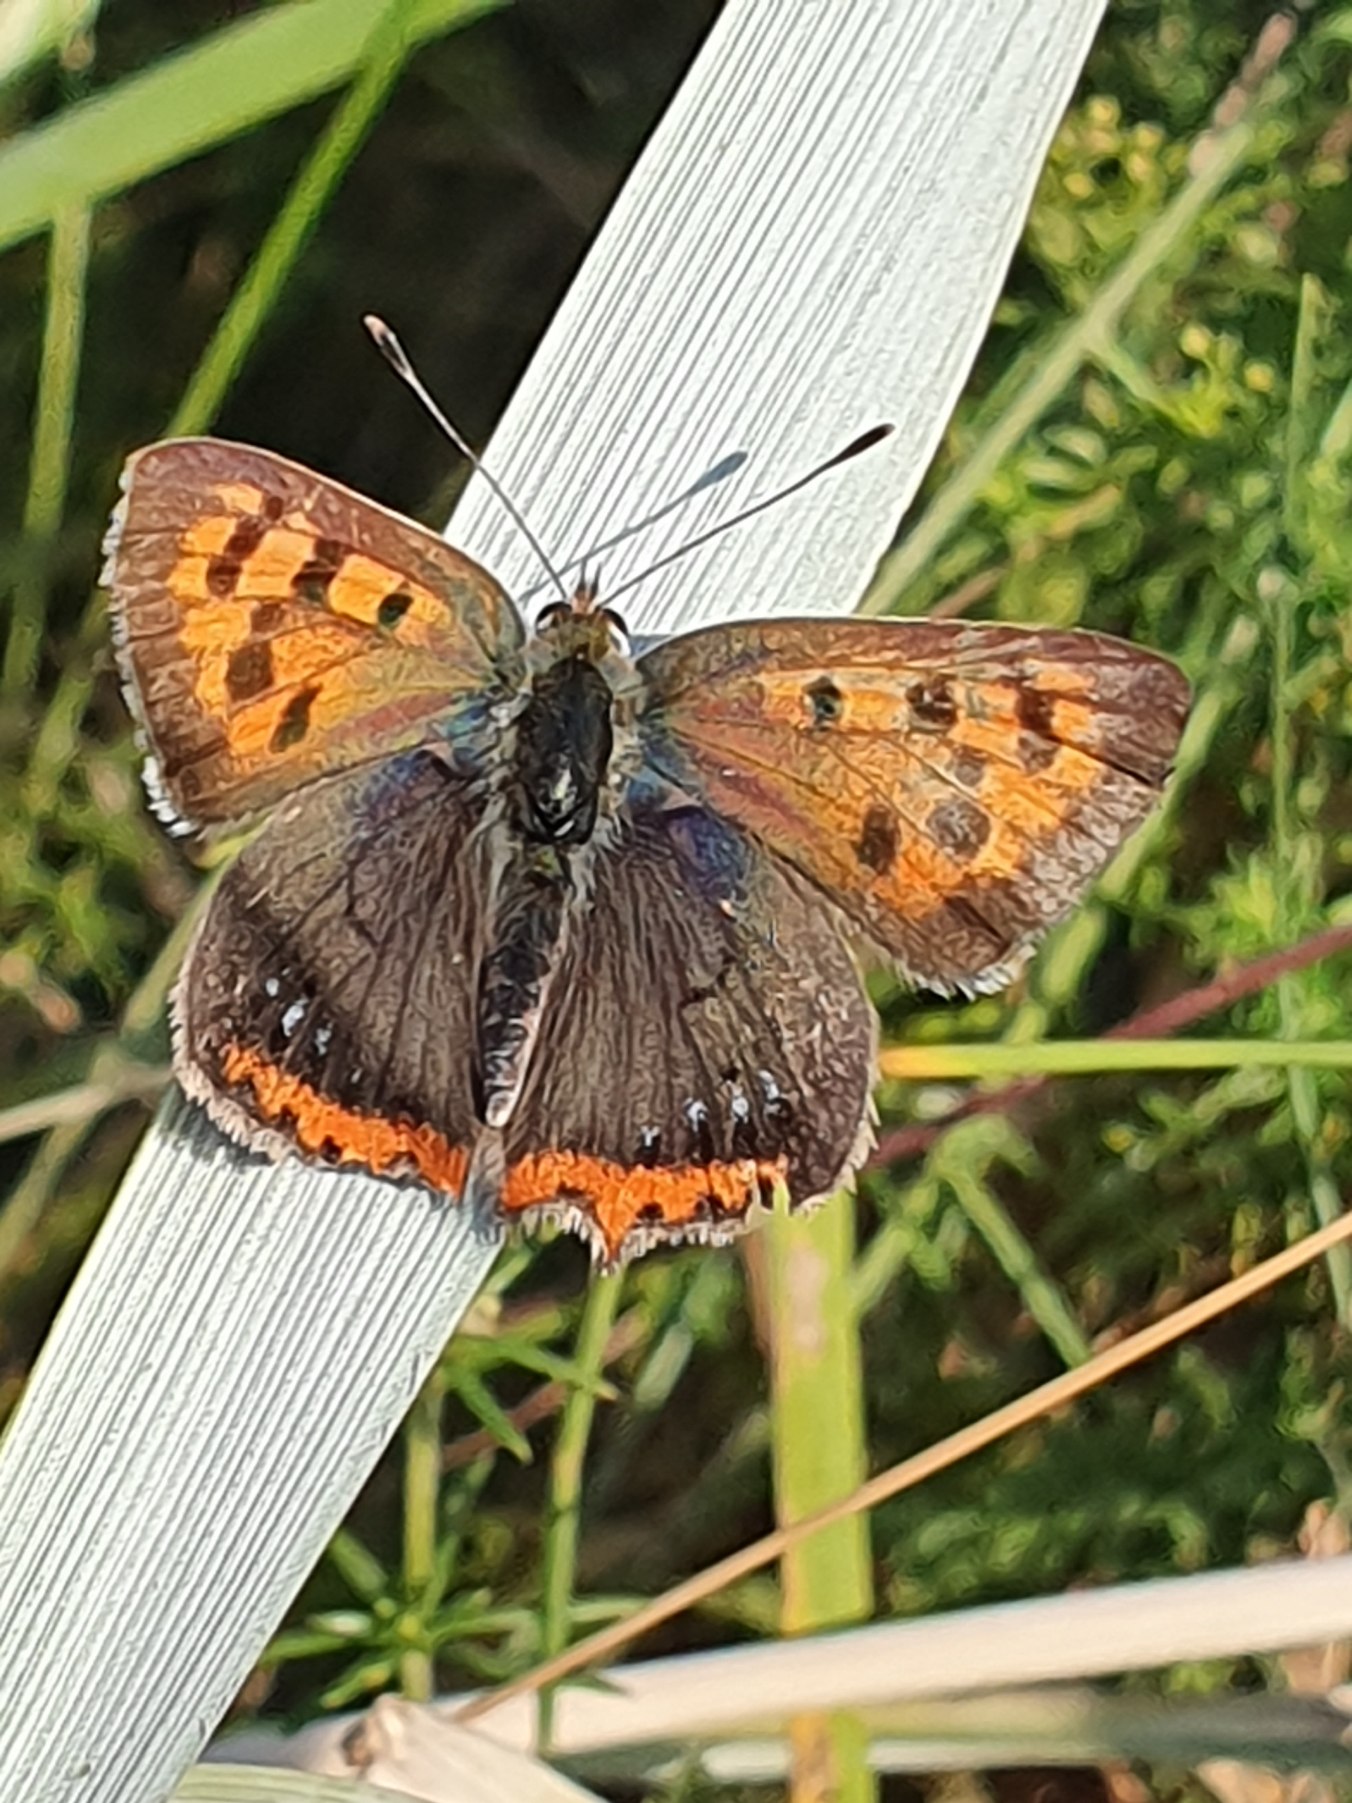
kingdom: Animalia
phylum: Arthropoda
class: Insecta
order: Lepidoptera
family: Lycaenidae
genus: Lycaena
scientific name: Lycaena phlaeas
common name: Lille ildfugl
